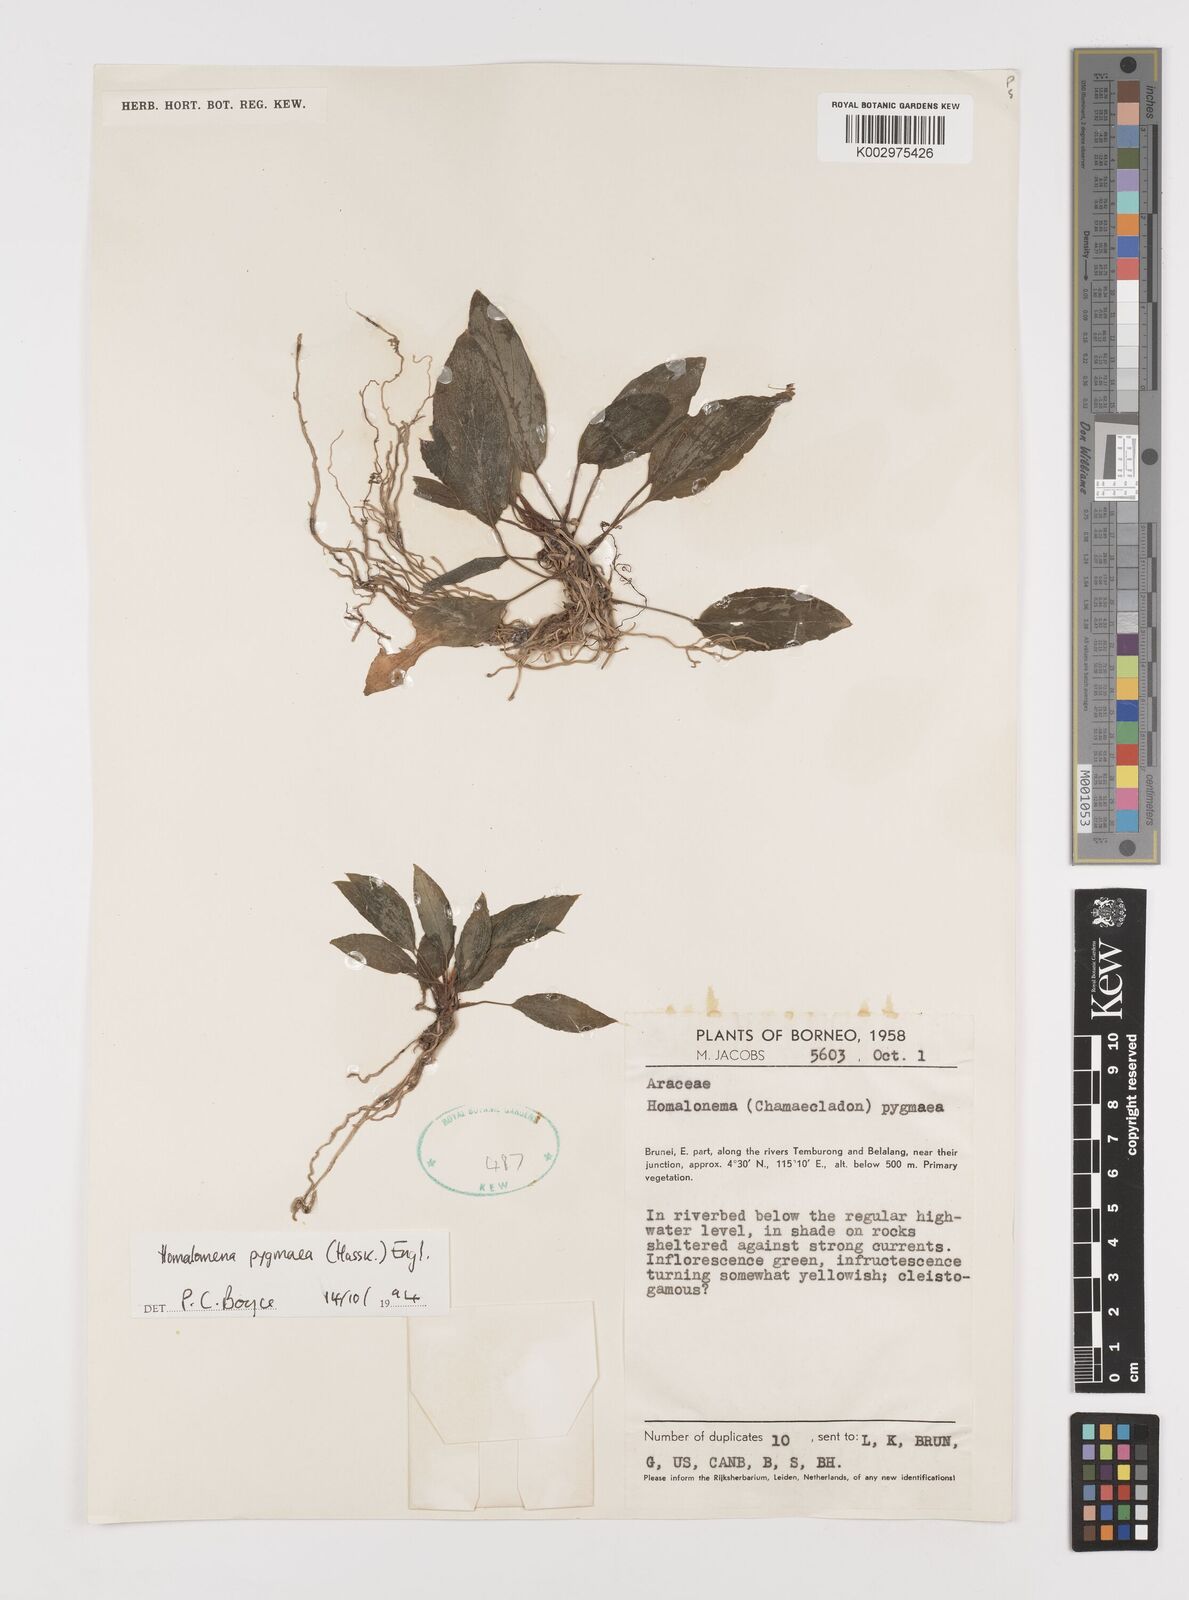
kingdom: Plantae
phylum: Tracheophyta
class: Liliopsida
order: Alismatales
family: Araceae
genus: Homalomena
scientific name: Homalomena humilis
